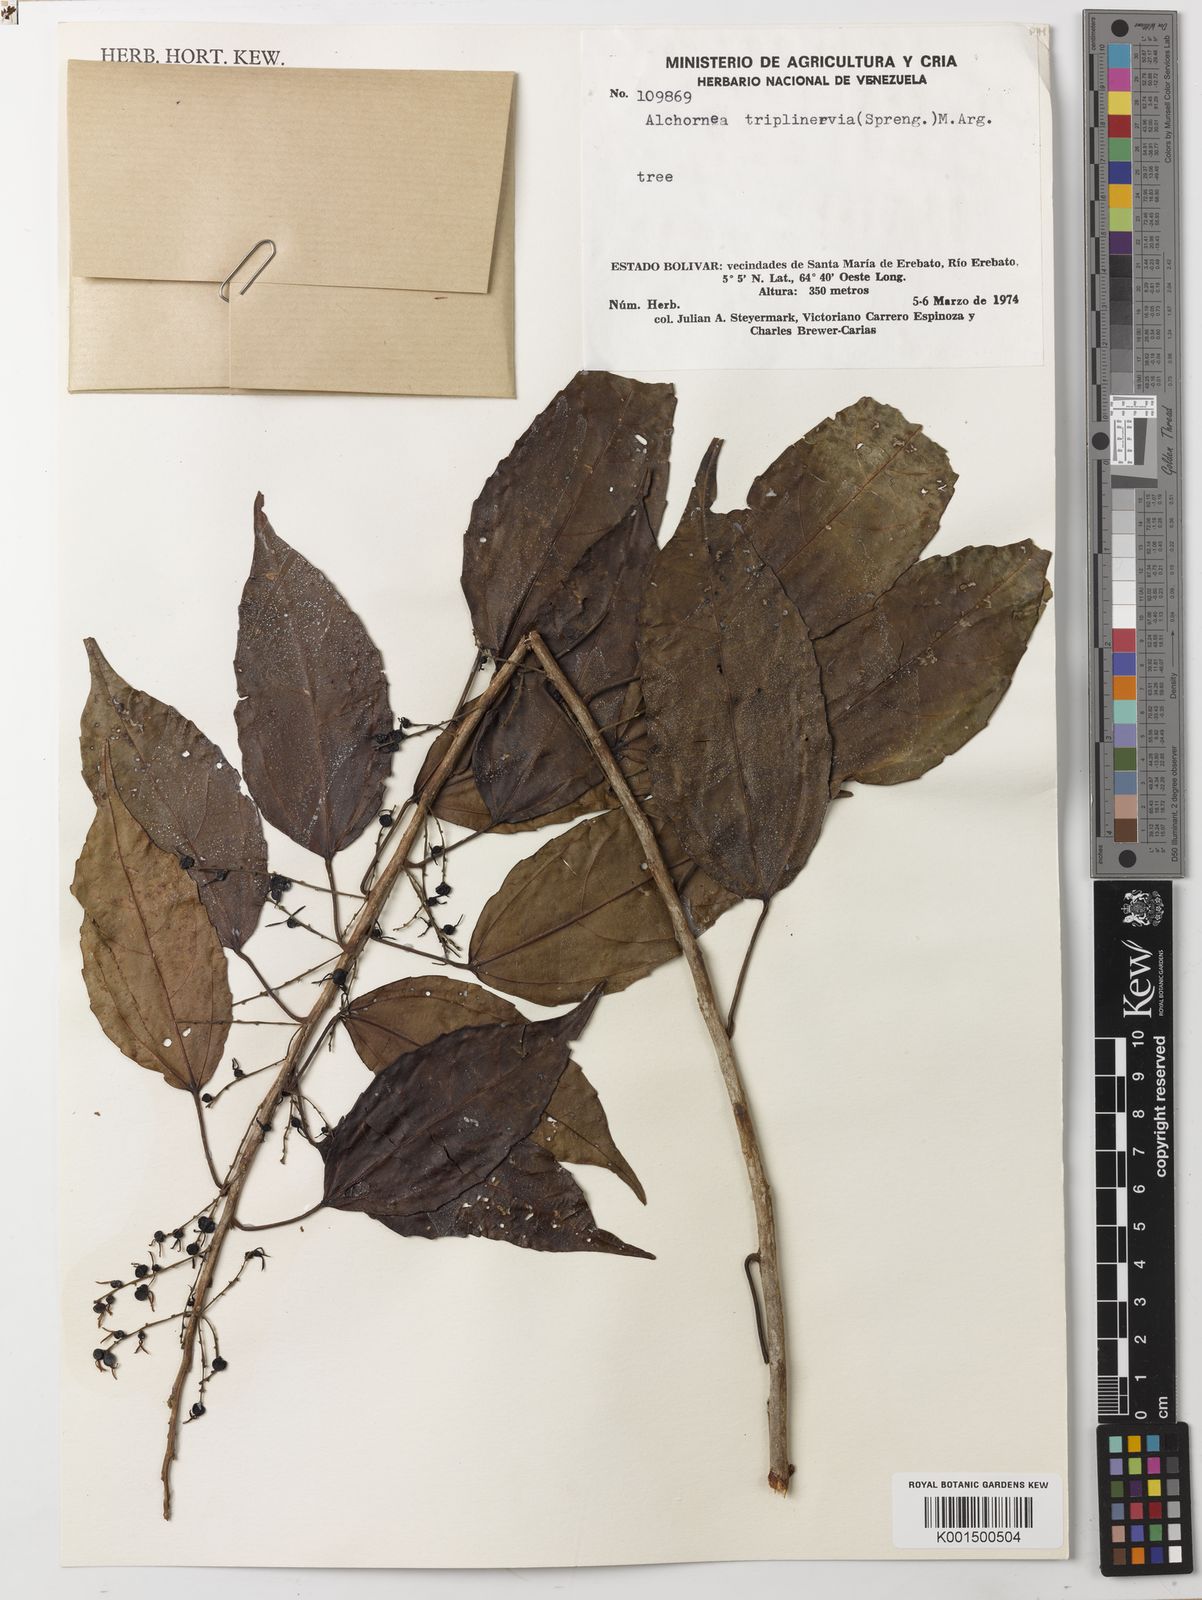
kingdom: Plantae
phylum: Tracheophyta
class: Magnoliopsida
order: Malpighiales
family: Euphorbiaceae
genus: Alchornea
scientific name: Alchornea triplinervia
